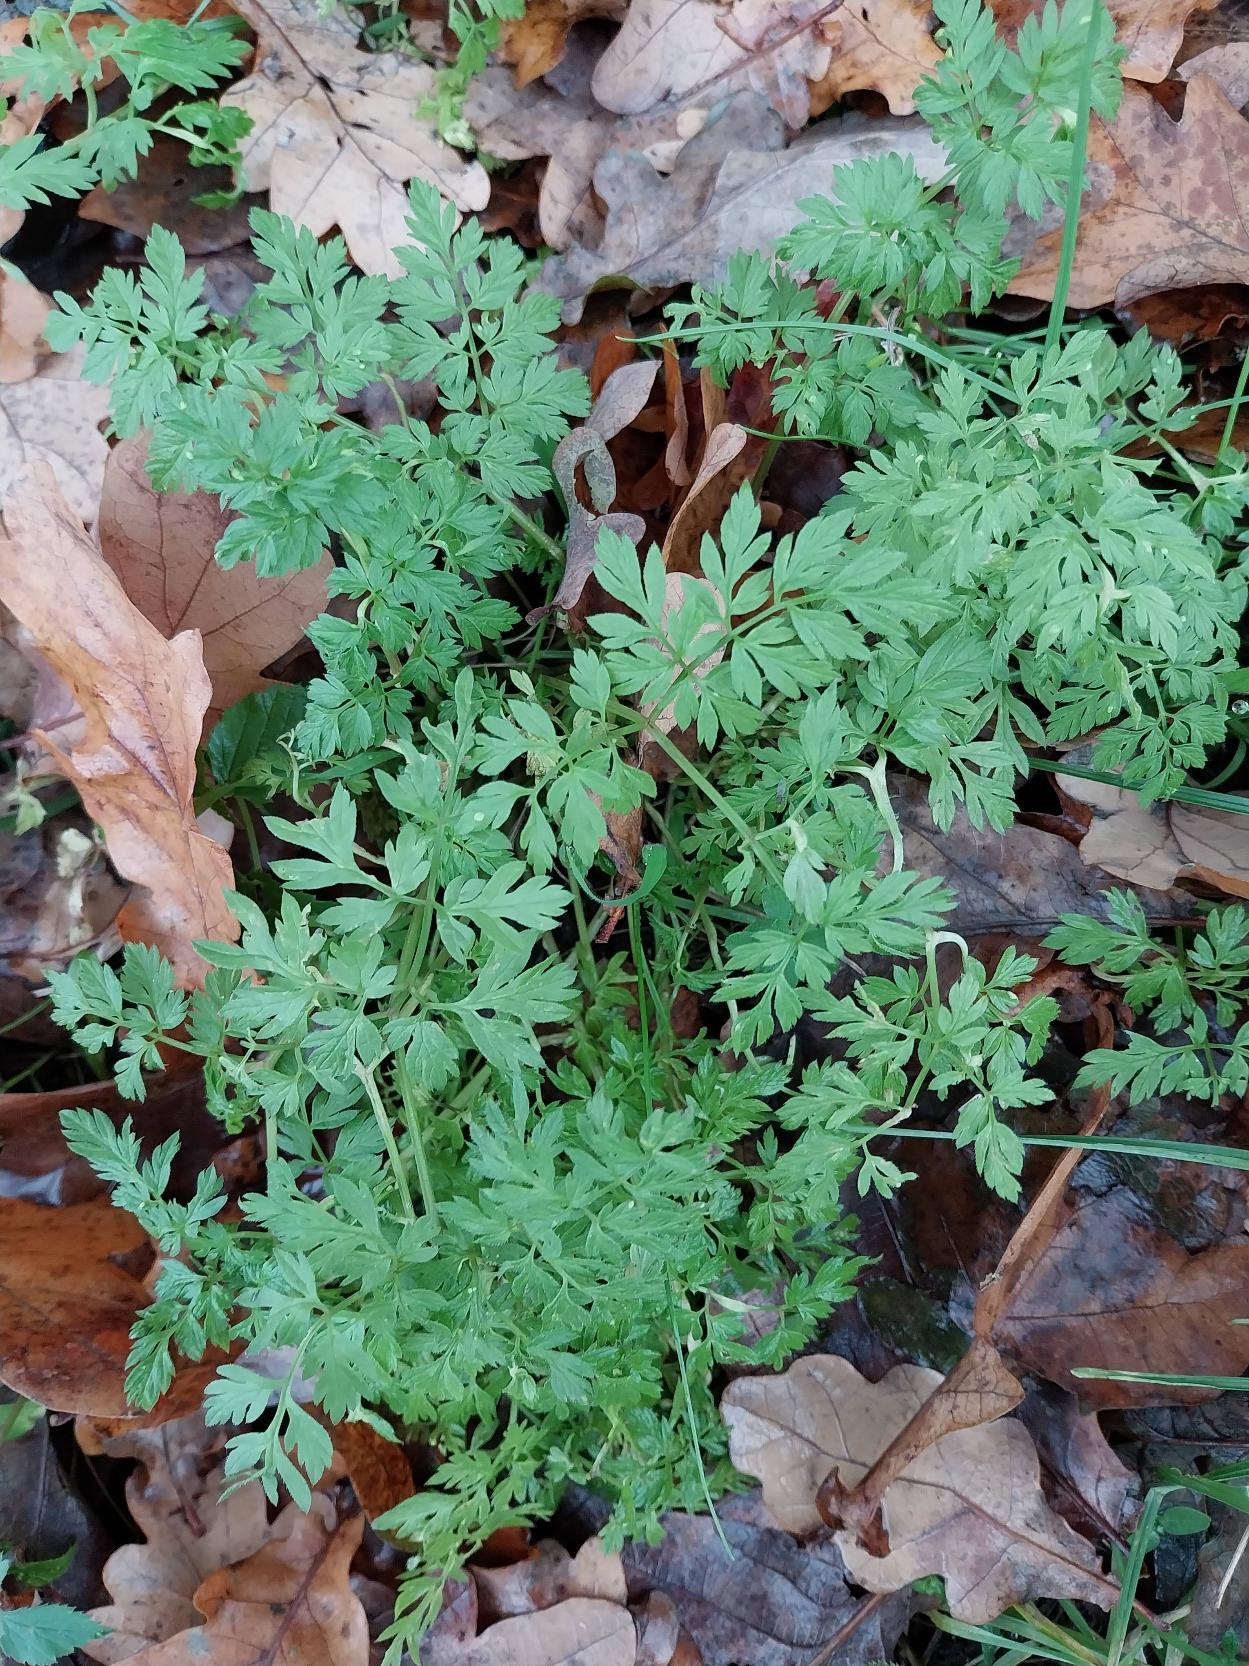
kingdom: Plantae
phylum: Tracheophyta
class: Magnoliopsida
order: Apiales
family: Apiaceae
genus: Anthriscus
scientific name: Anthriscus sylvestris
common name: Vild kørvel
